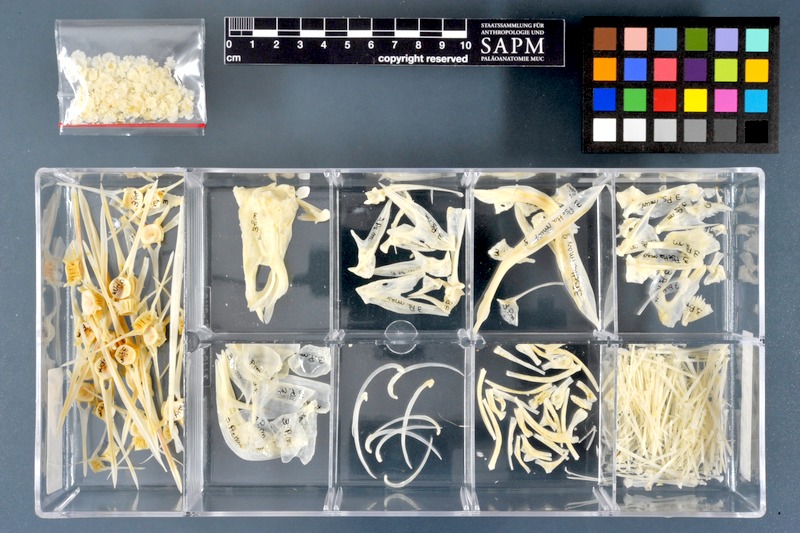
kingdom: Animalia
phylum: Chordata
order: Pleuronectiformes
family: Scophthalmidae
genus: Scophthalmus
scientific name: Scophthalmus maximus
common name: Turbot
